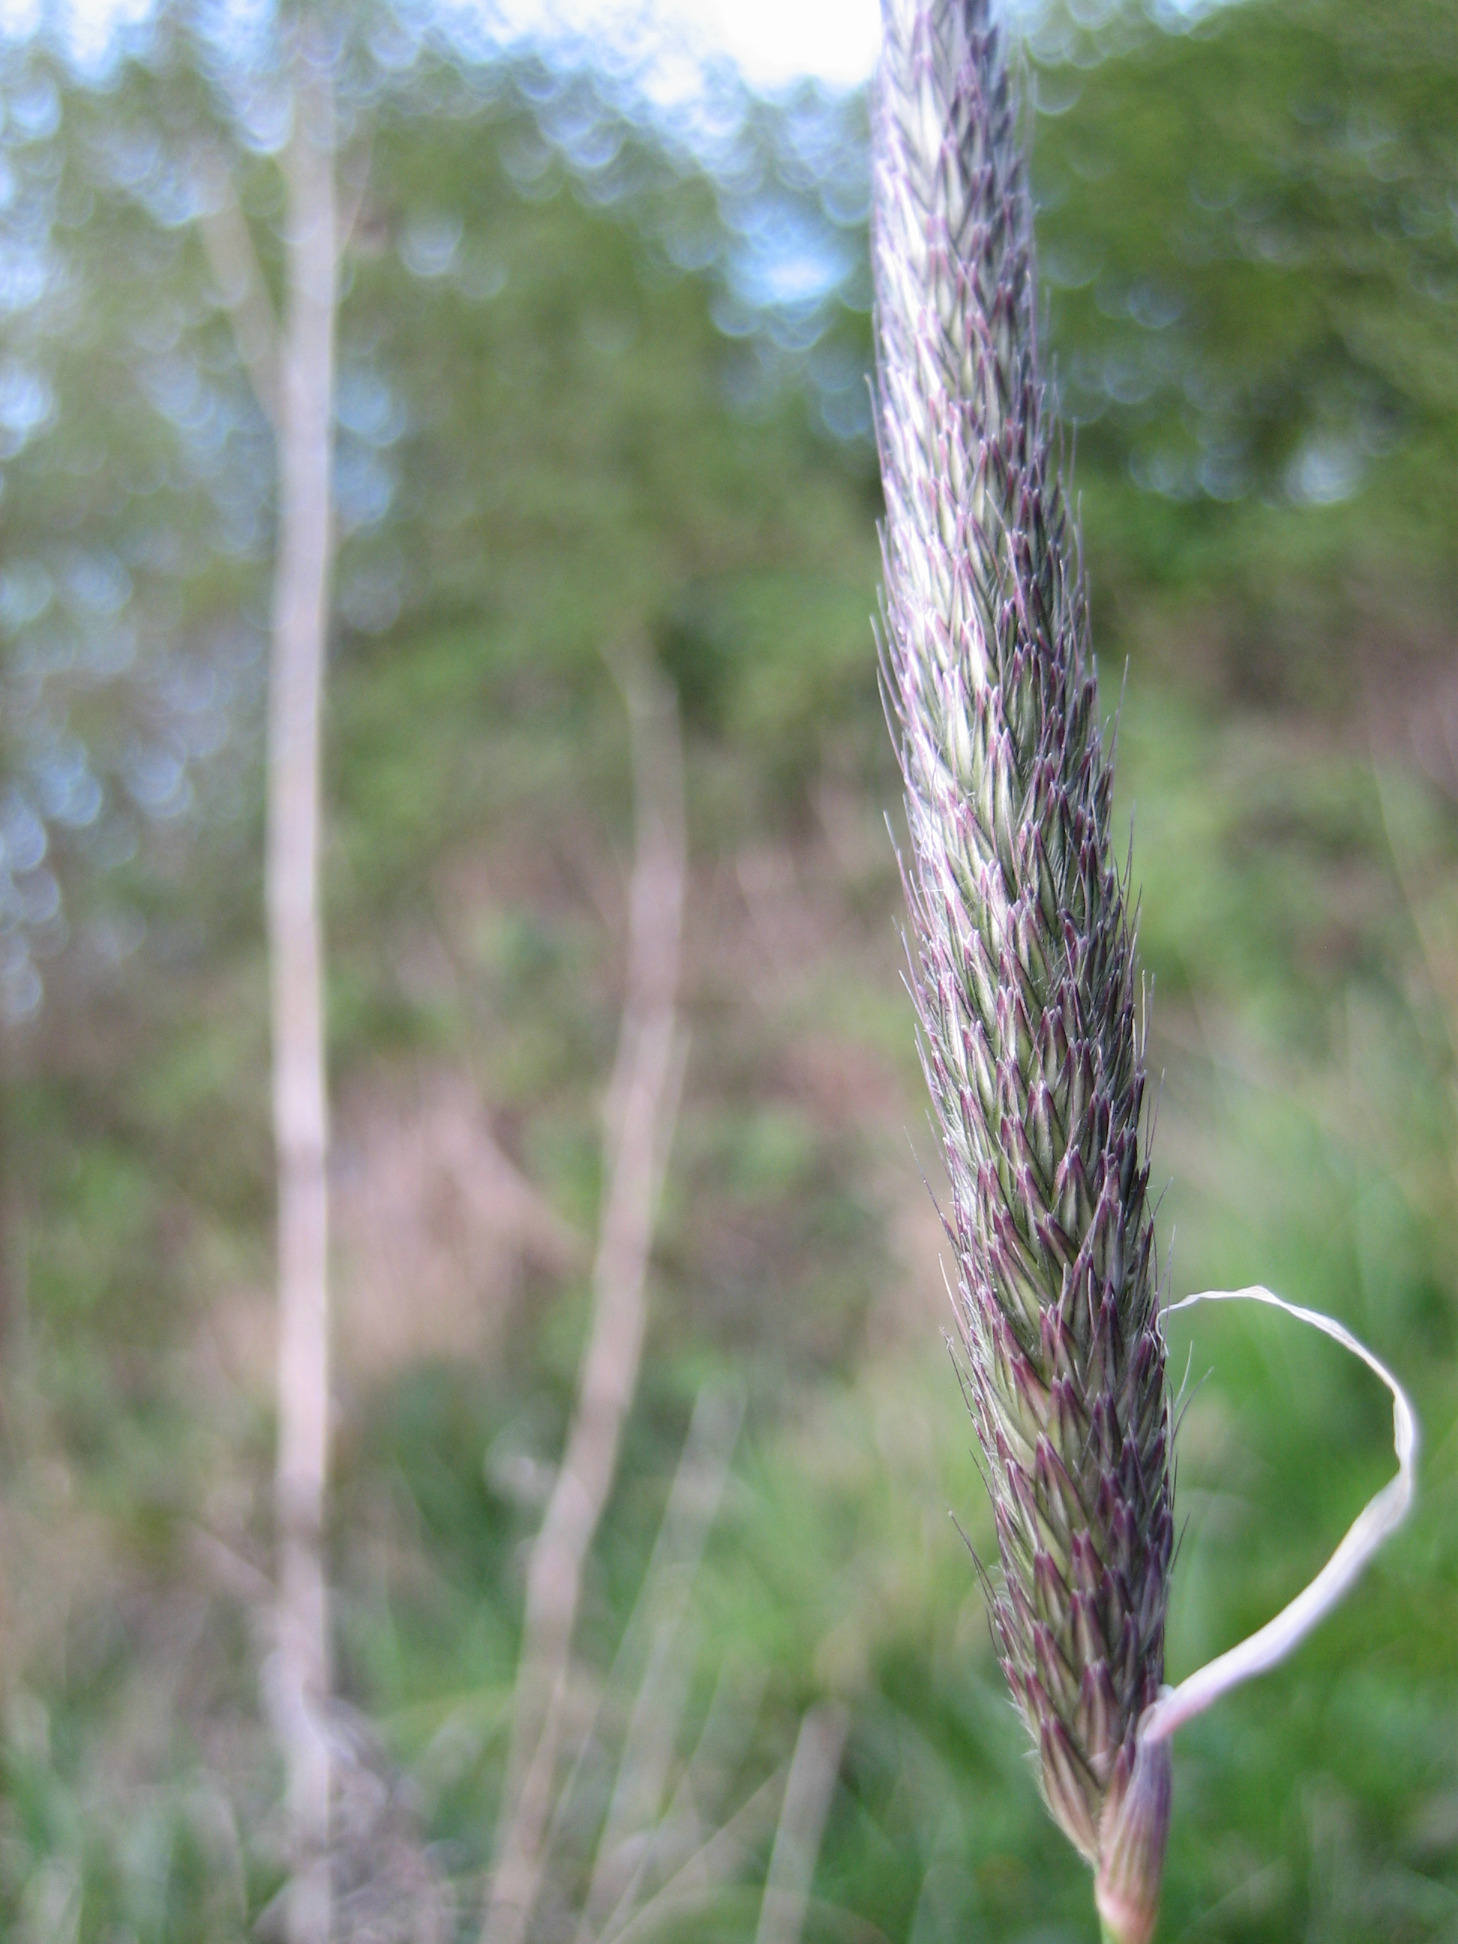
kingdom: Plantae
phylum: Tracheophyta
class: Liliopsida
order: Poales
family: Poaceae
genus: Alopecurus
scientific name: Alopecurus pratensis
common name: Eng-rævehale
